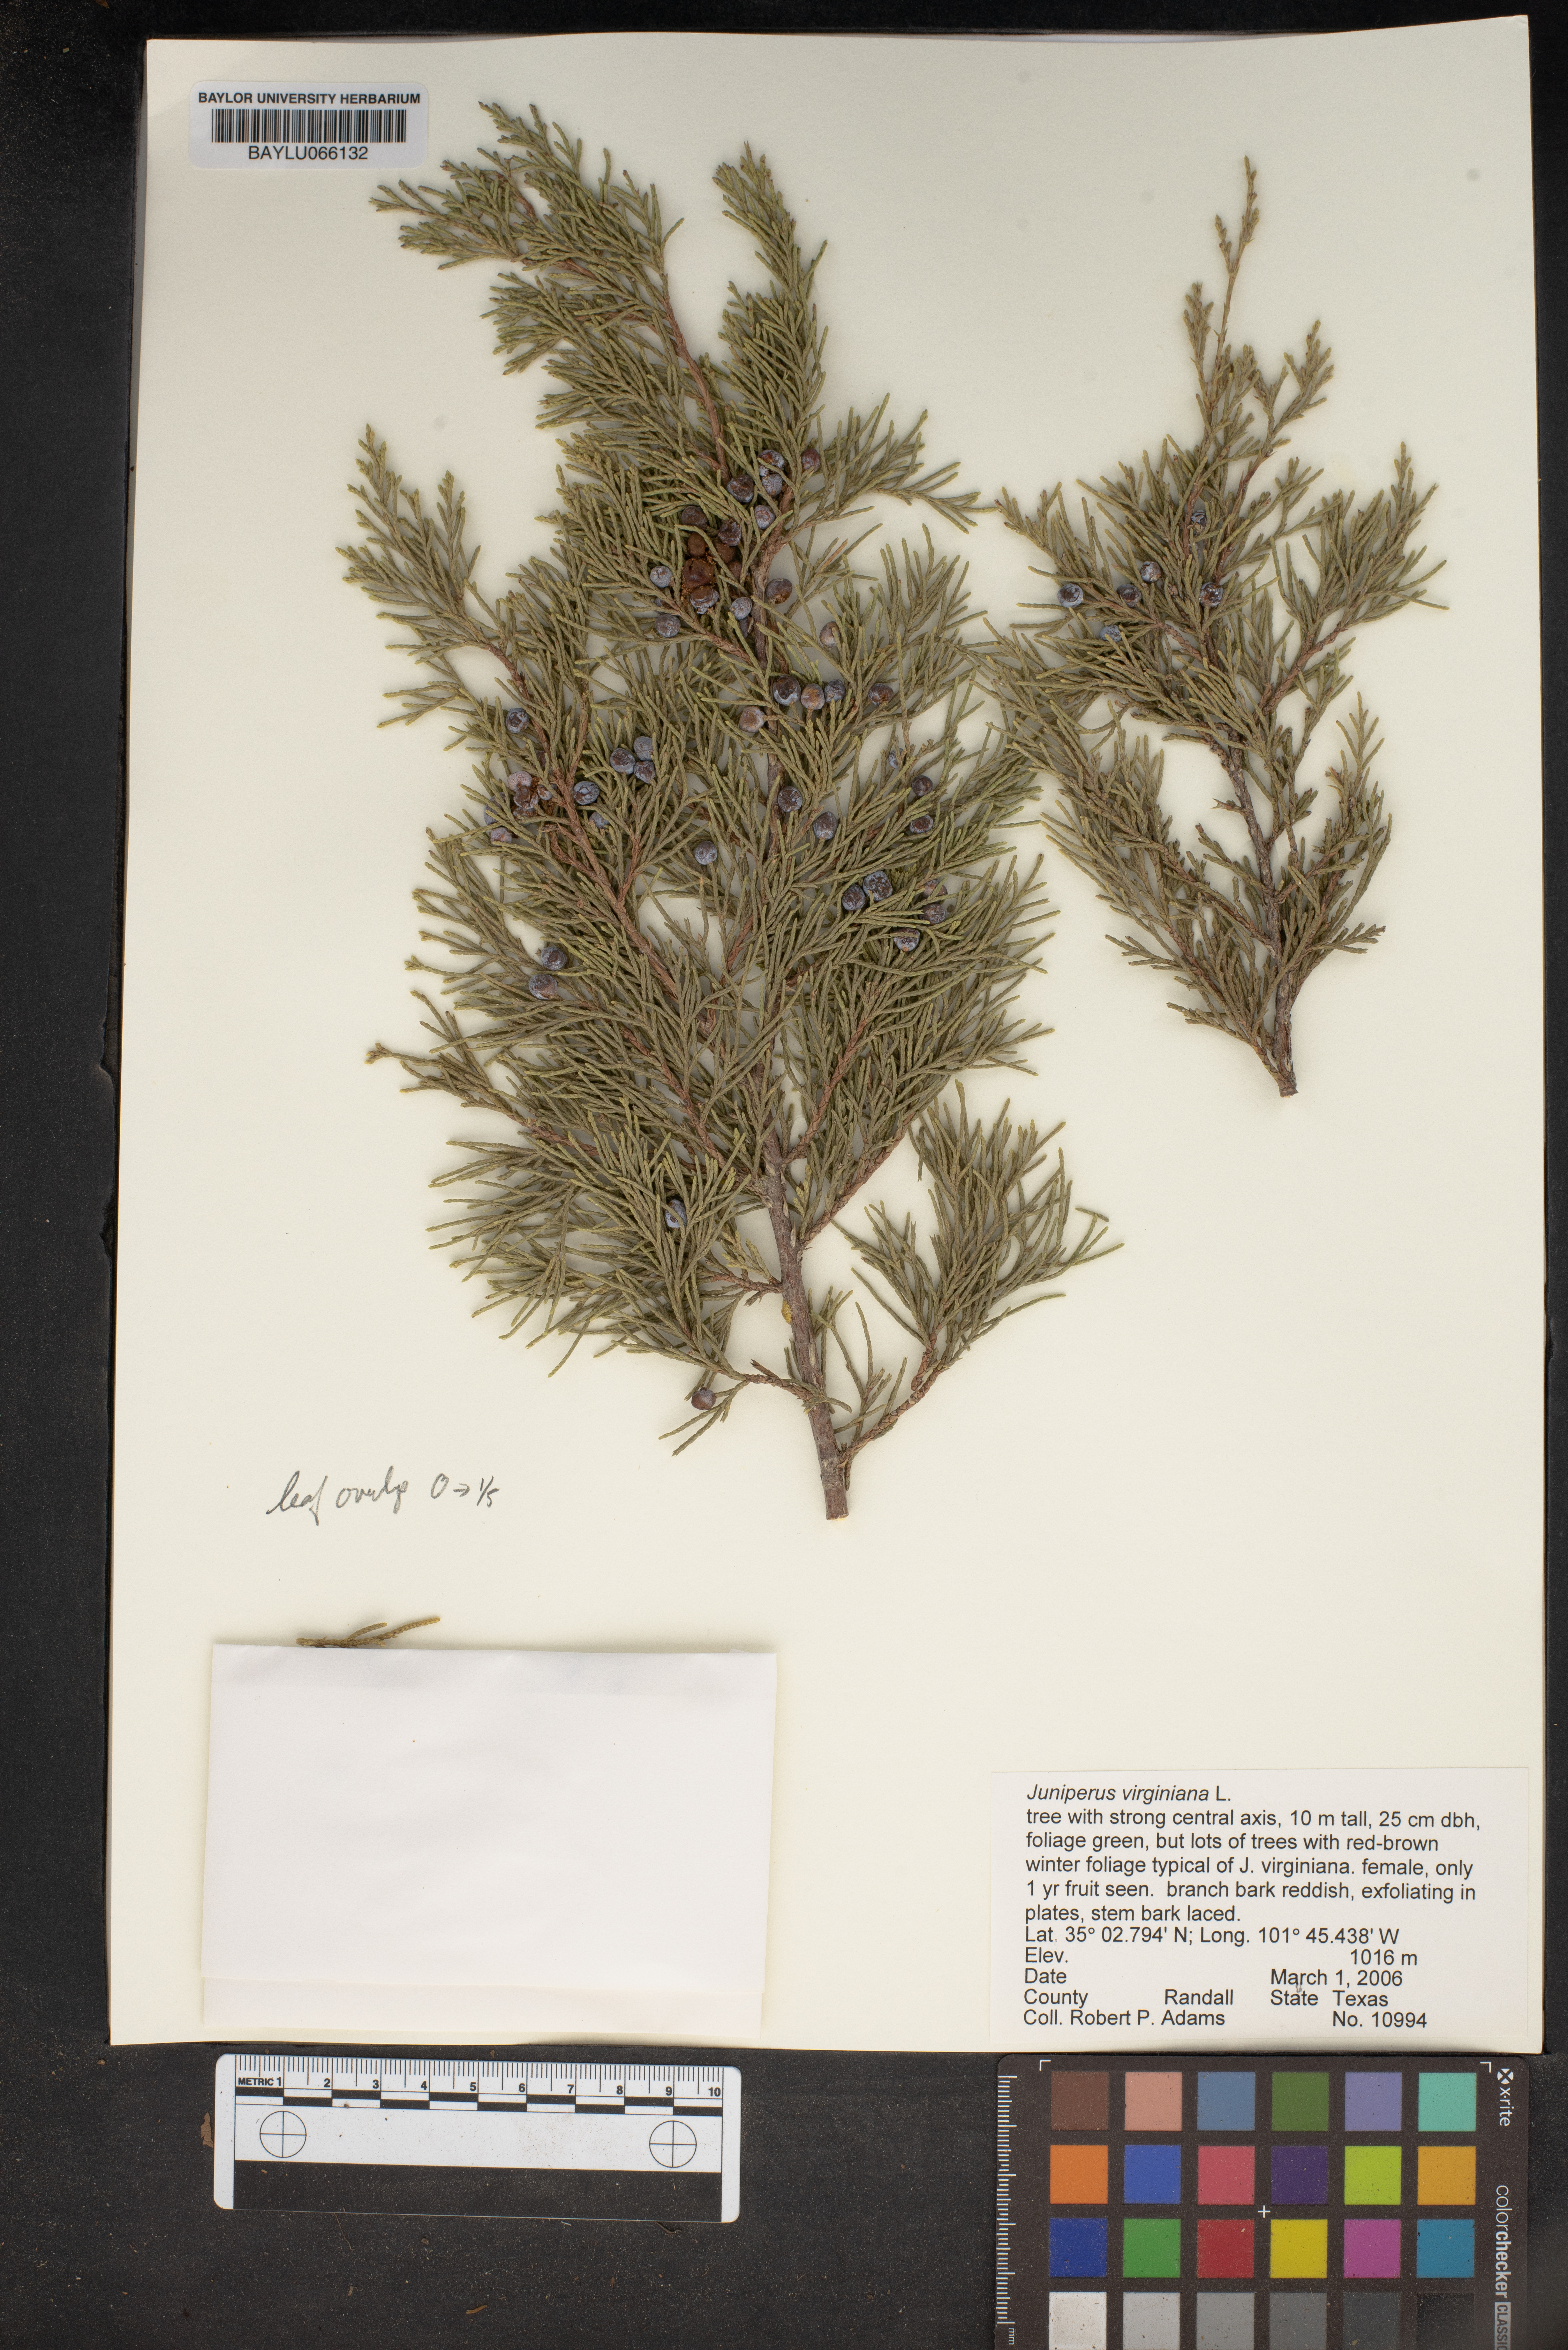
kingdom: Plantae
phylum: Tracheophyta
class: Pinopsida
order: Pinales
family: Cupressaceae
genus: Juniperus
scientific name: Juniperus virginiana
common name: Red juniper
